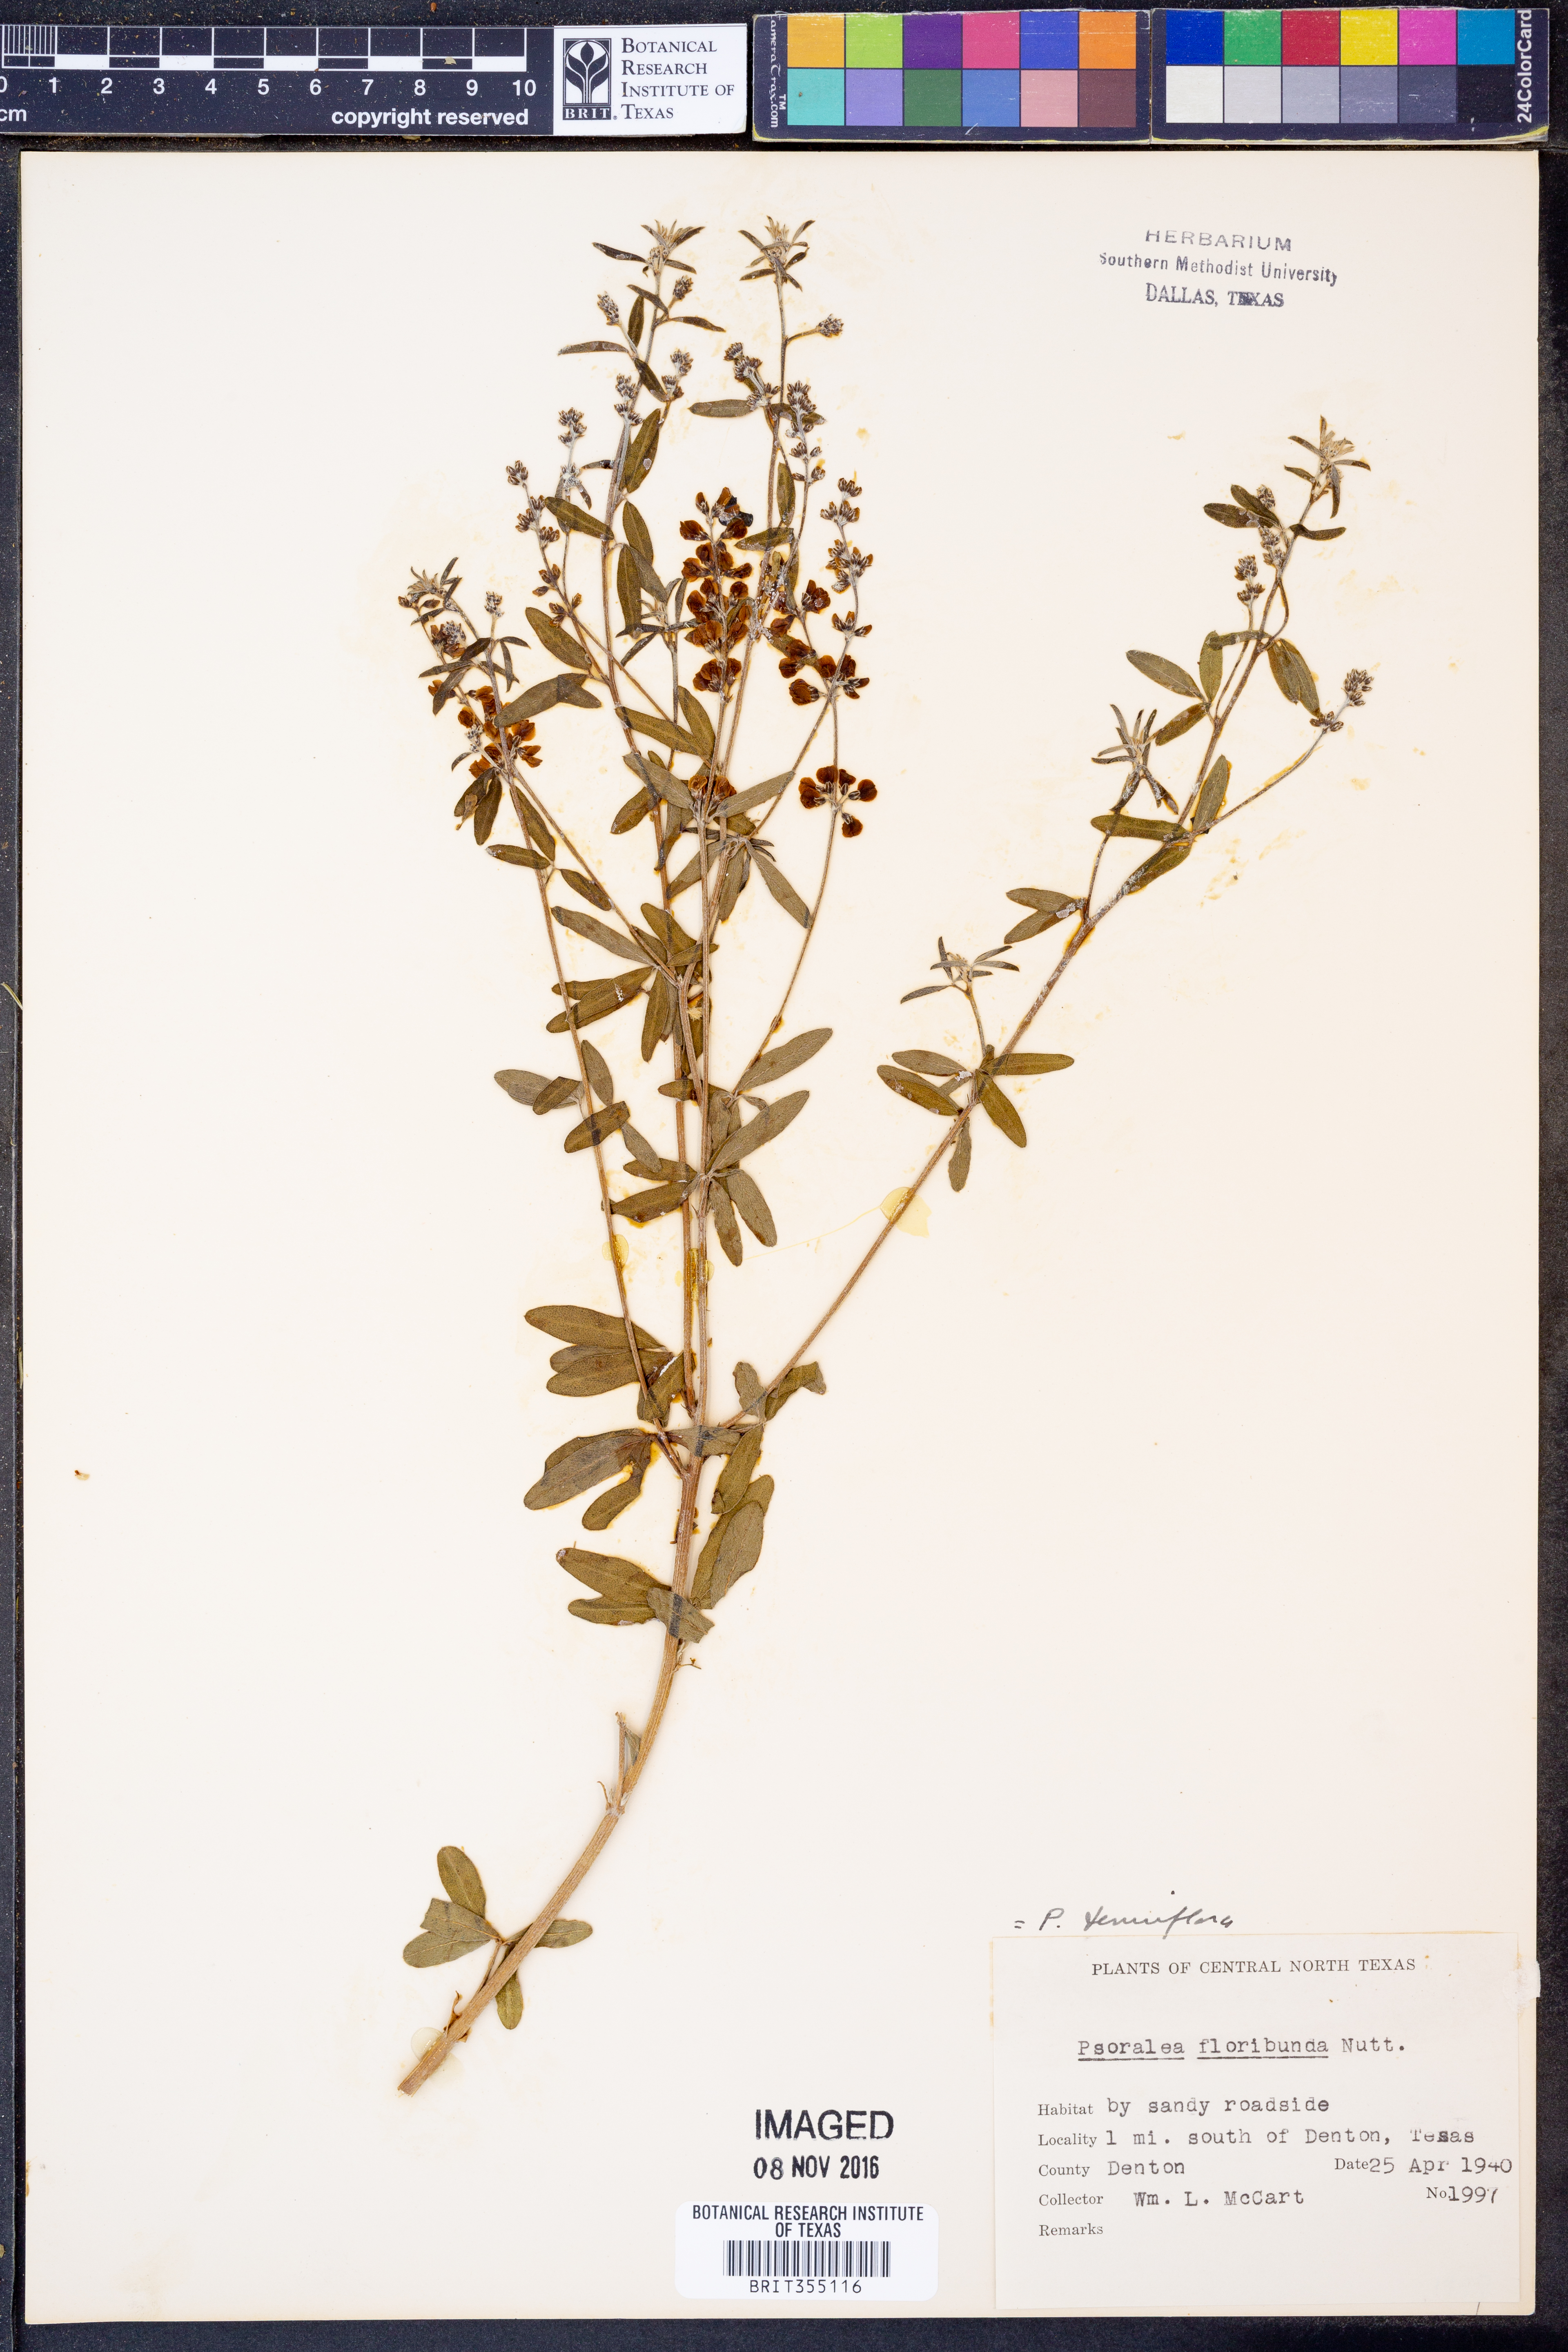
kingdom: Plantae
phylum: Tracheophyta
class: Magnoliopsida
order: Fabales
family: Fabaceae
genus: Pediomelum
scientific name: Pediomelum tenuiflorum
